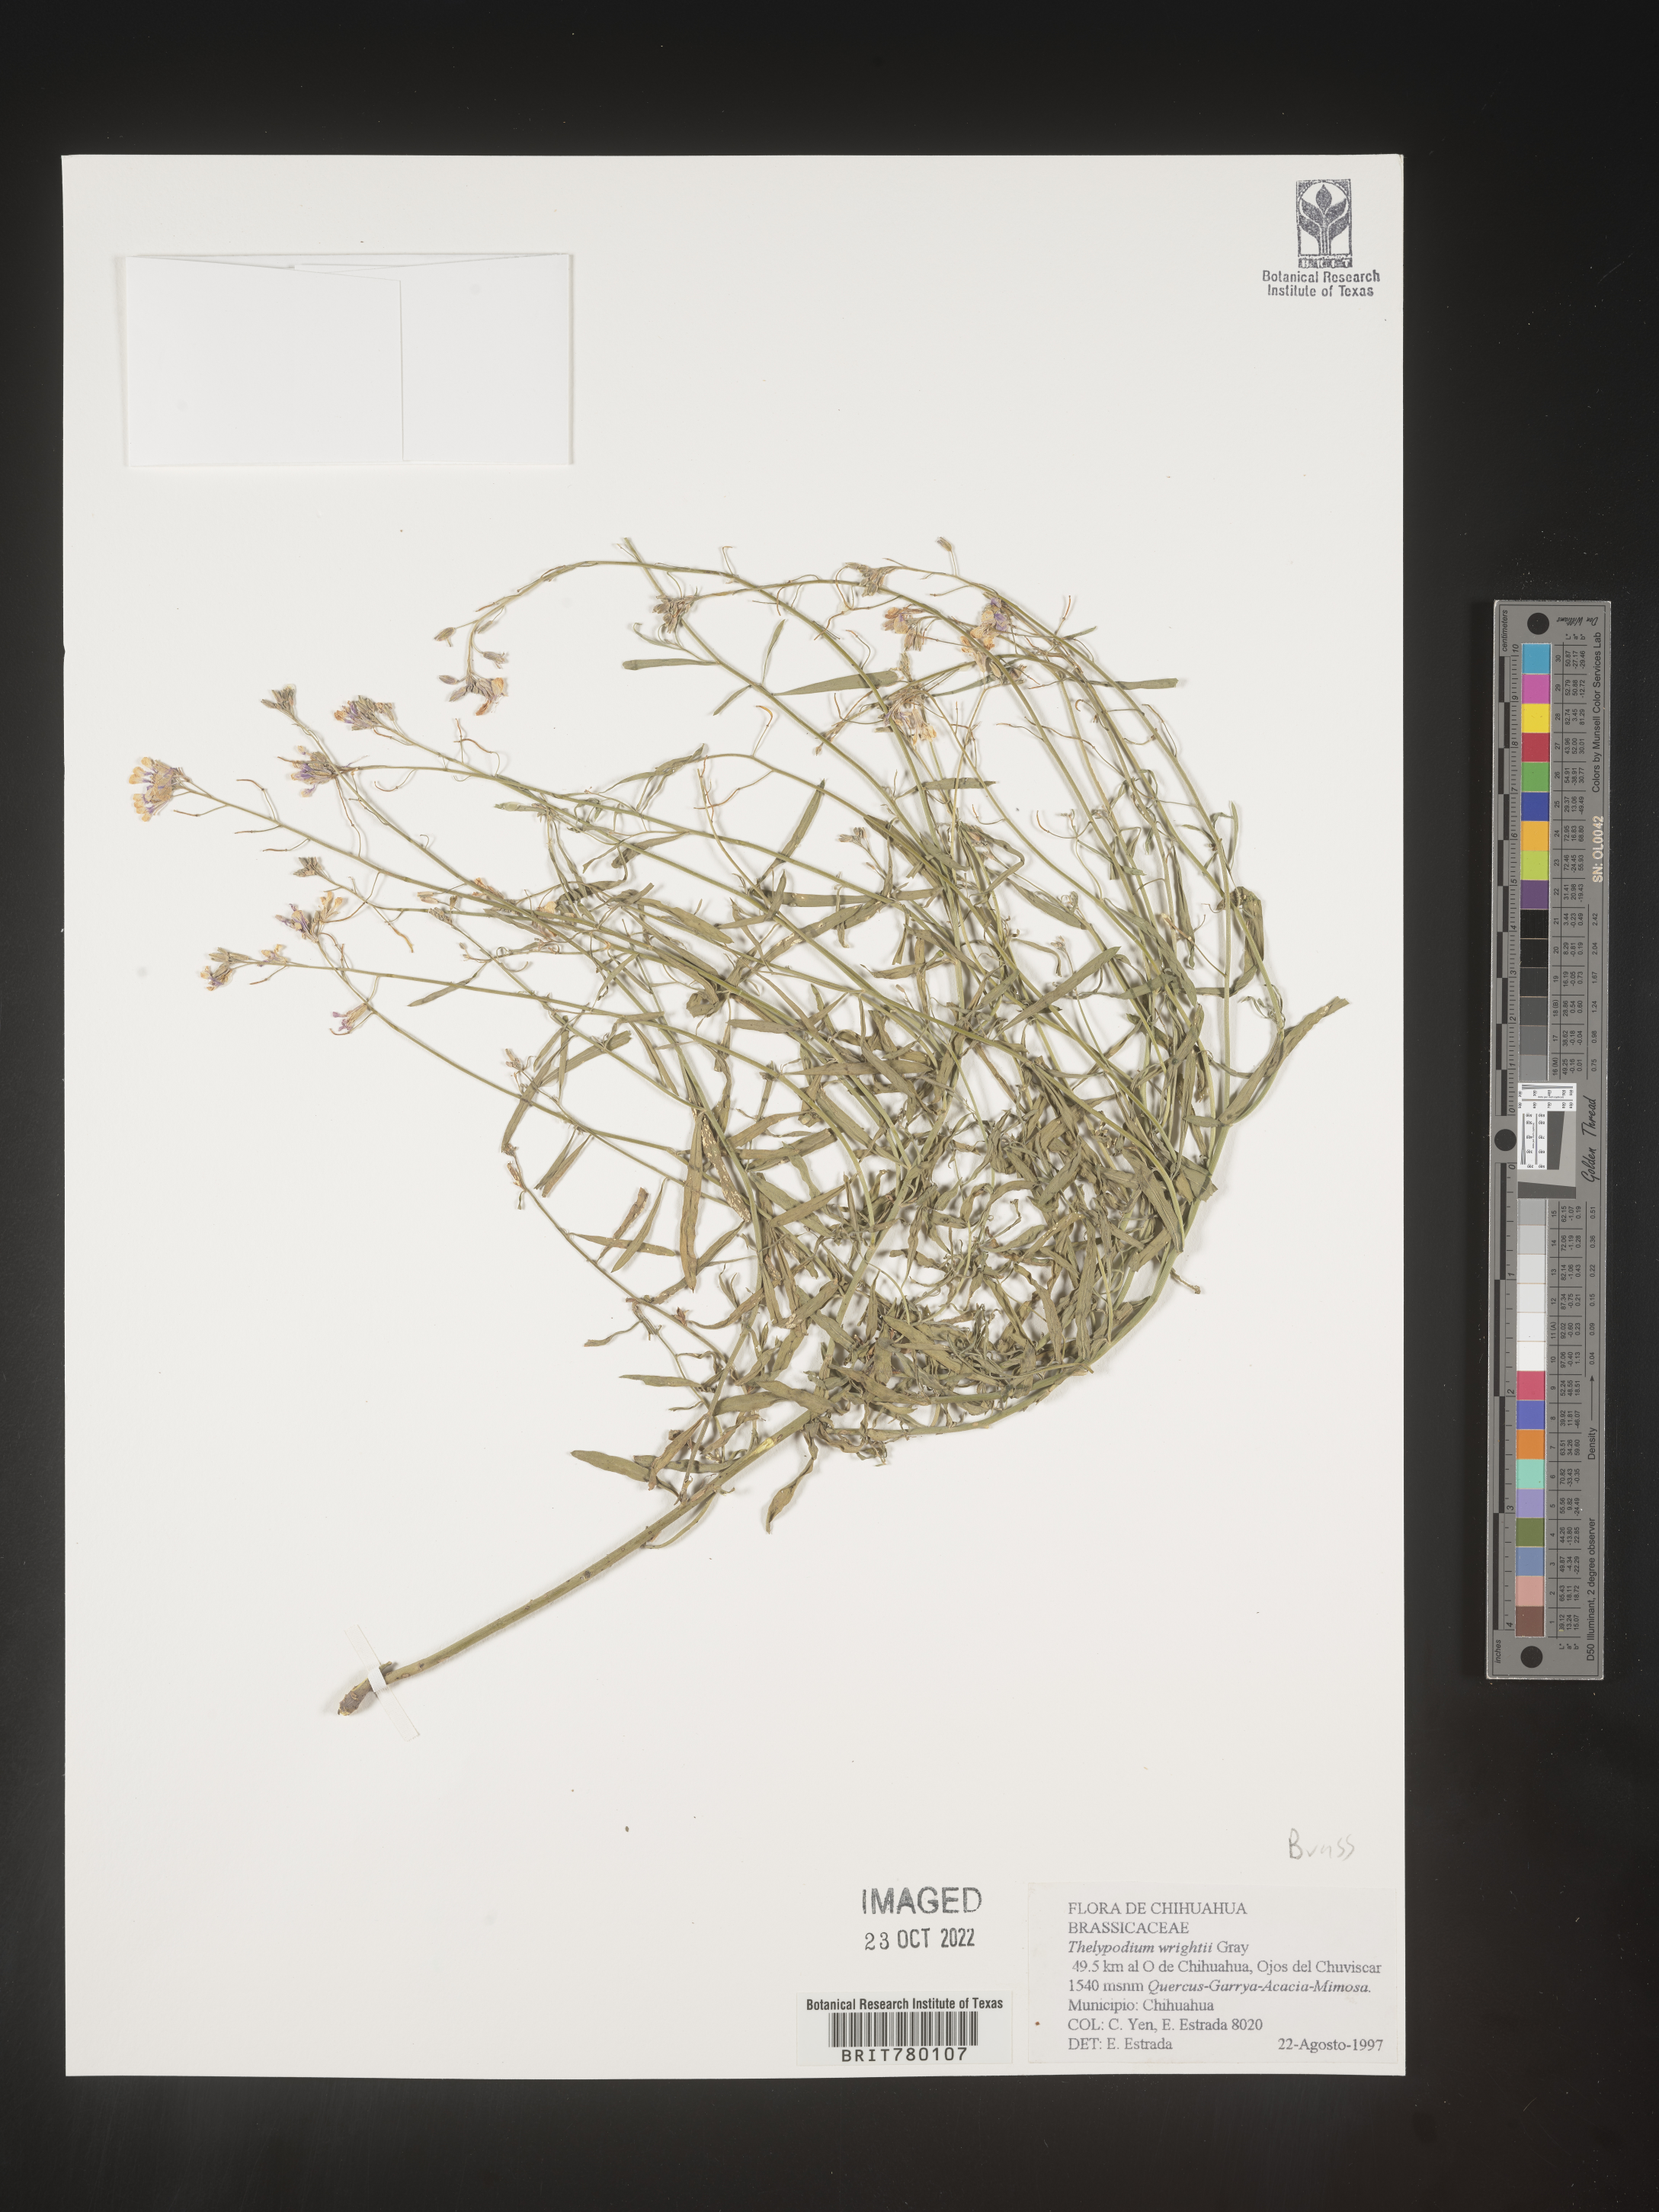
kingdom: Plantae
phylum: Tracheophyta
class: Magnoliopsida
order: Brassicales
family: Brassicaceae
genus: Thelypodium
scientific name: Thelypodium
